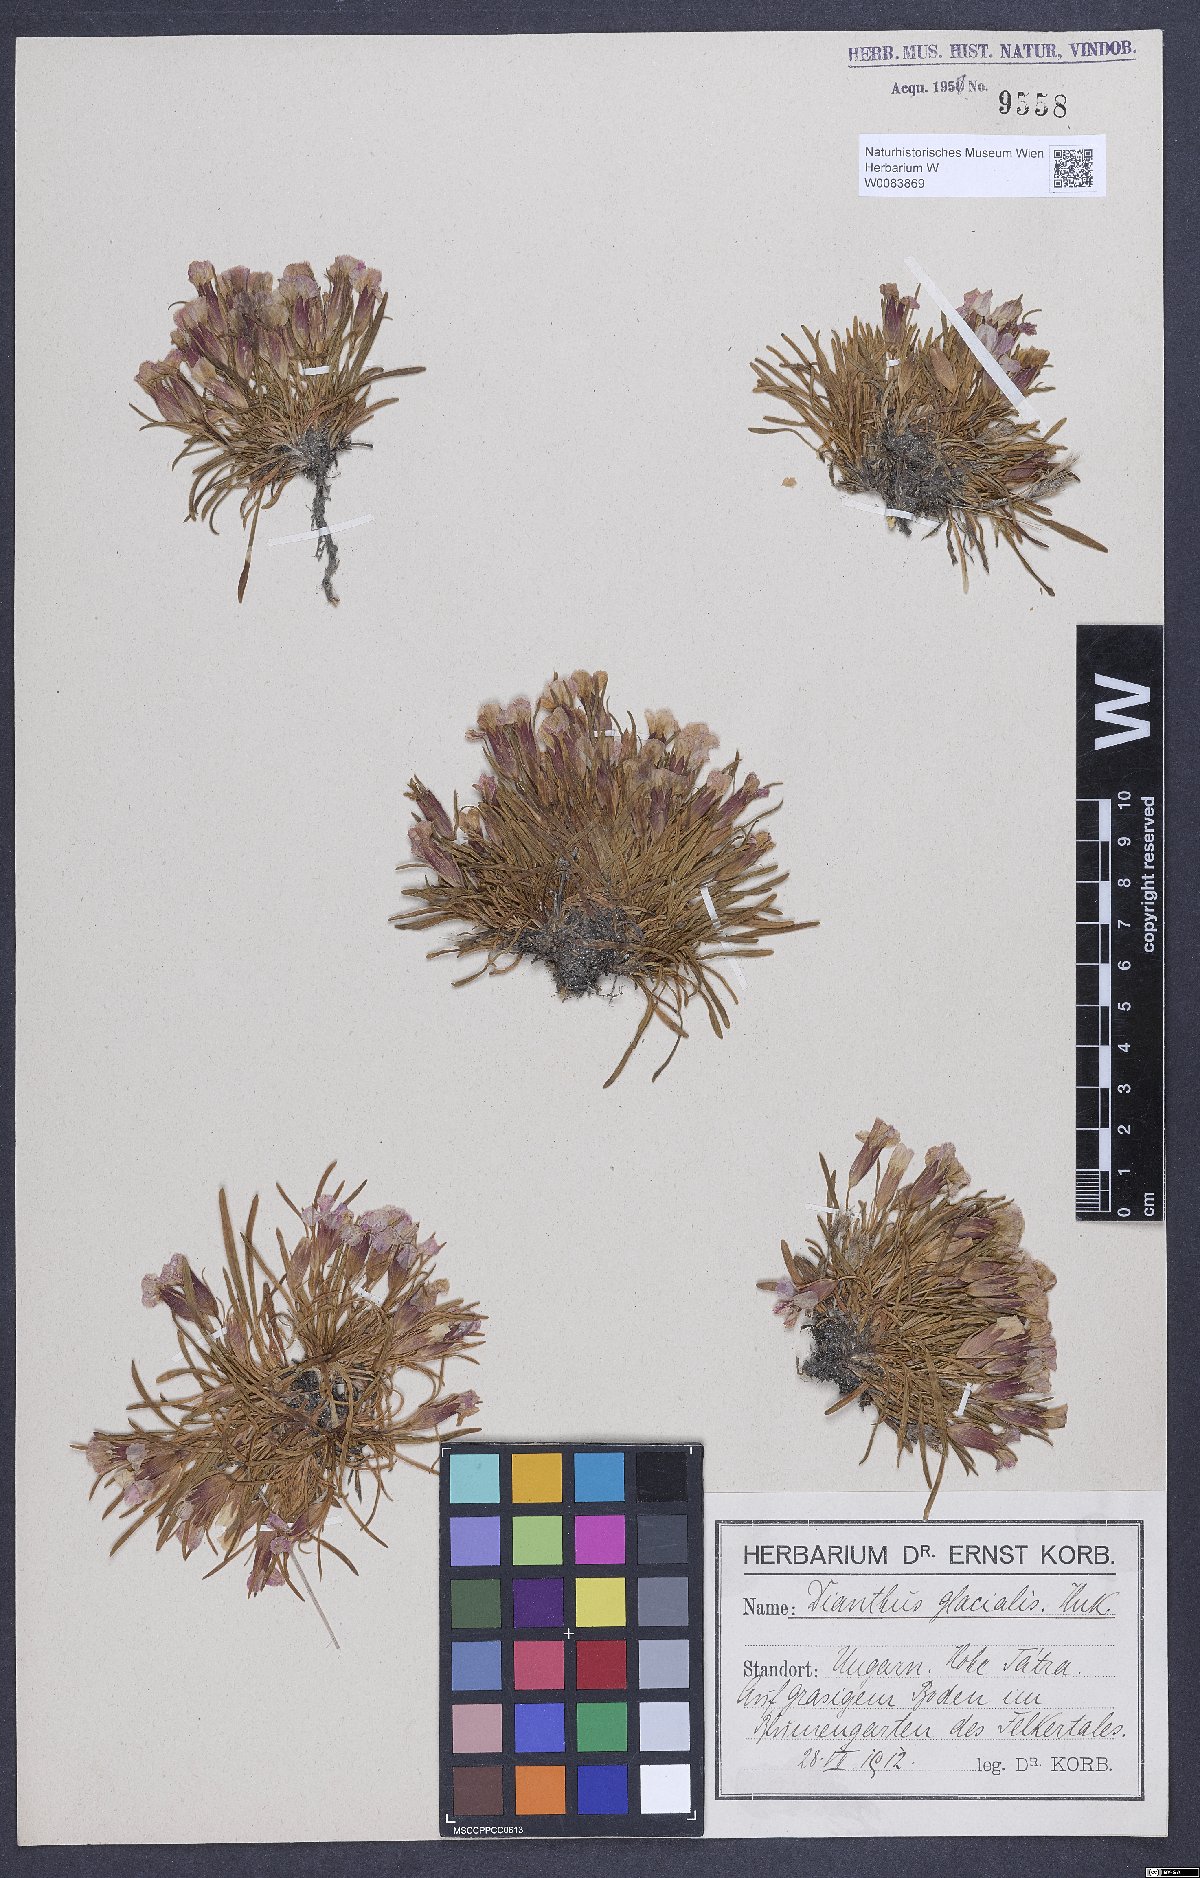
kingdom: Plantae
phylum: Tracheophyta
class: Magnoliopsida
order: Caryophyllales
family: Caryophyllaceae
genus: Dianthus
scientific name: Dianthus glacialis
